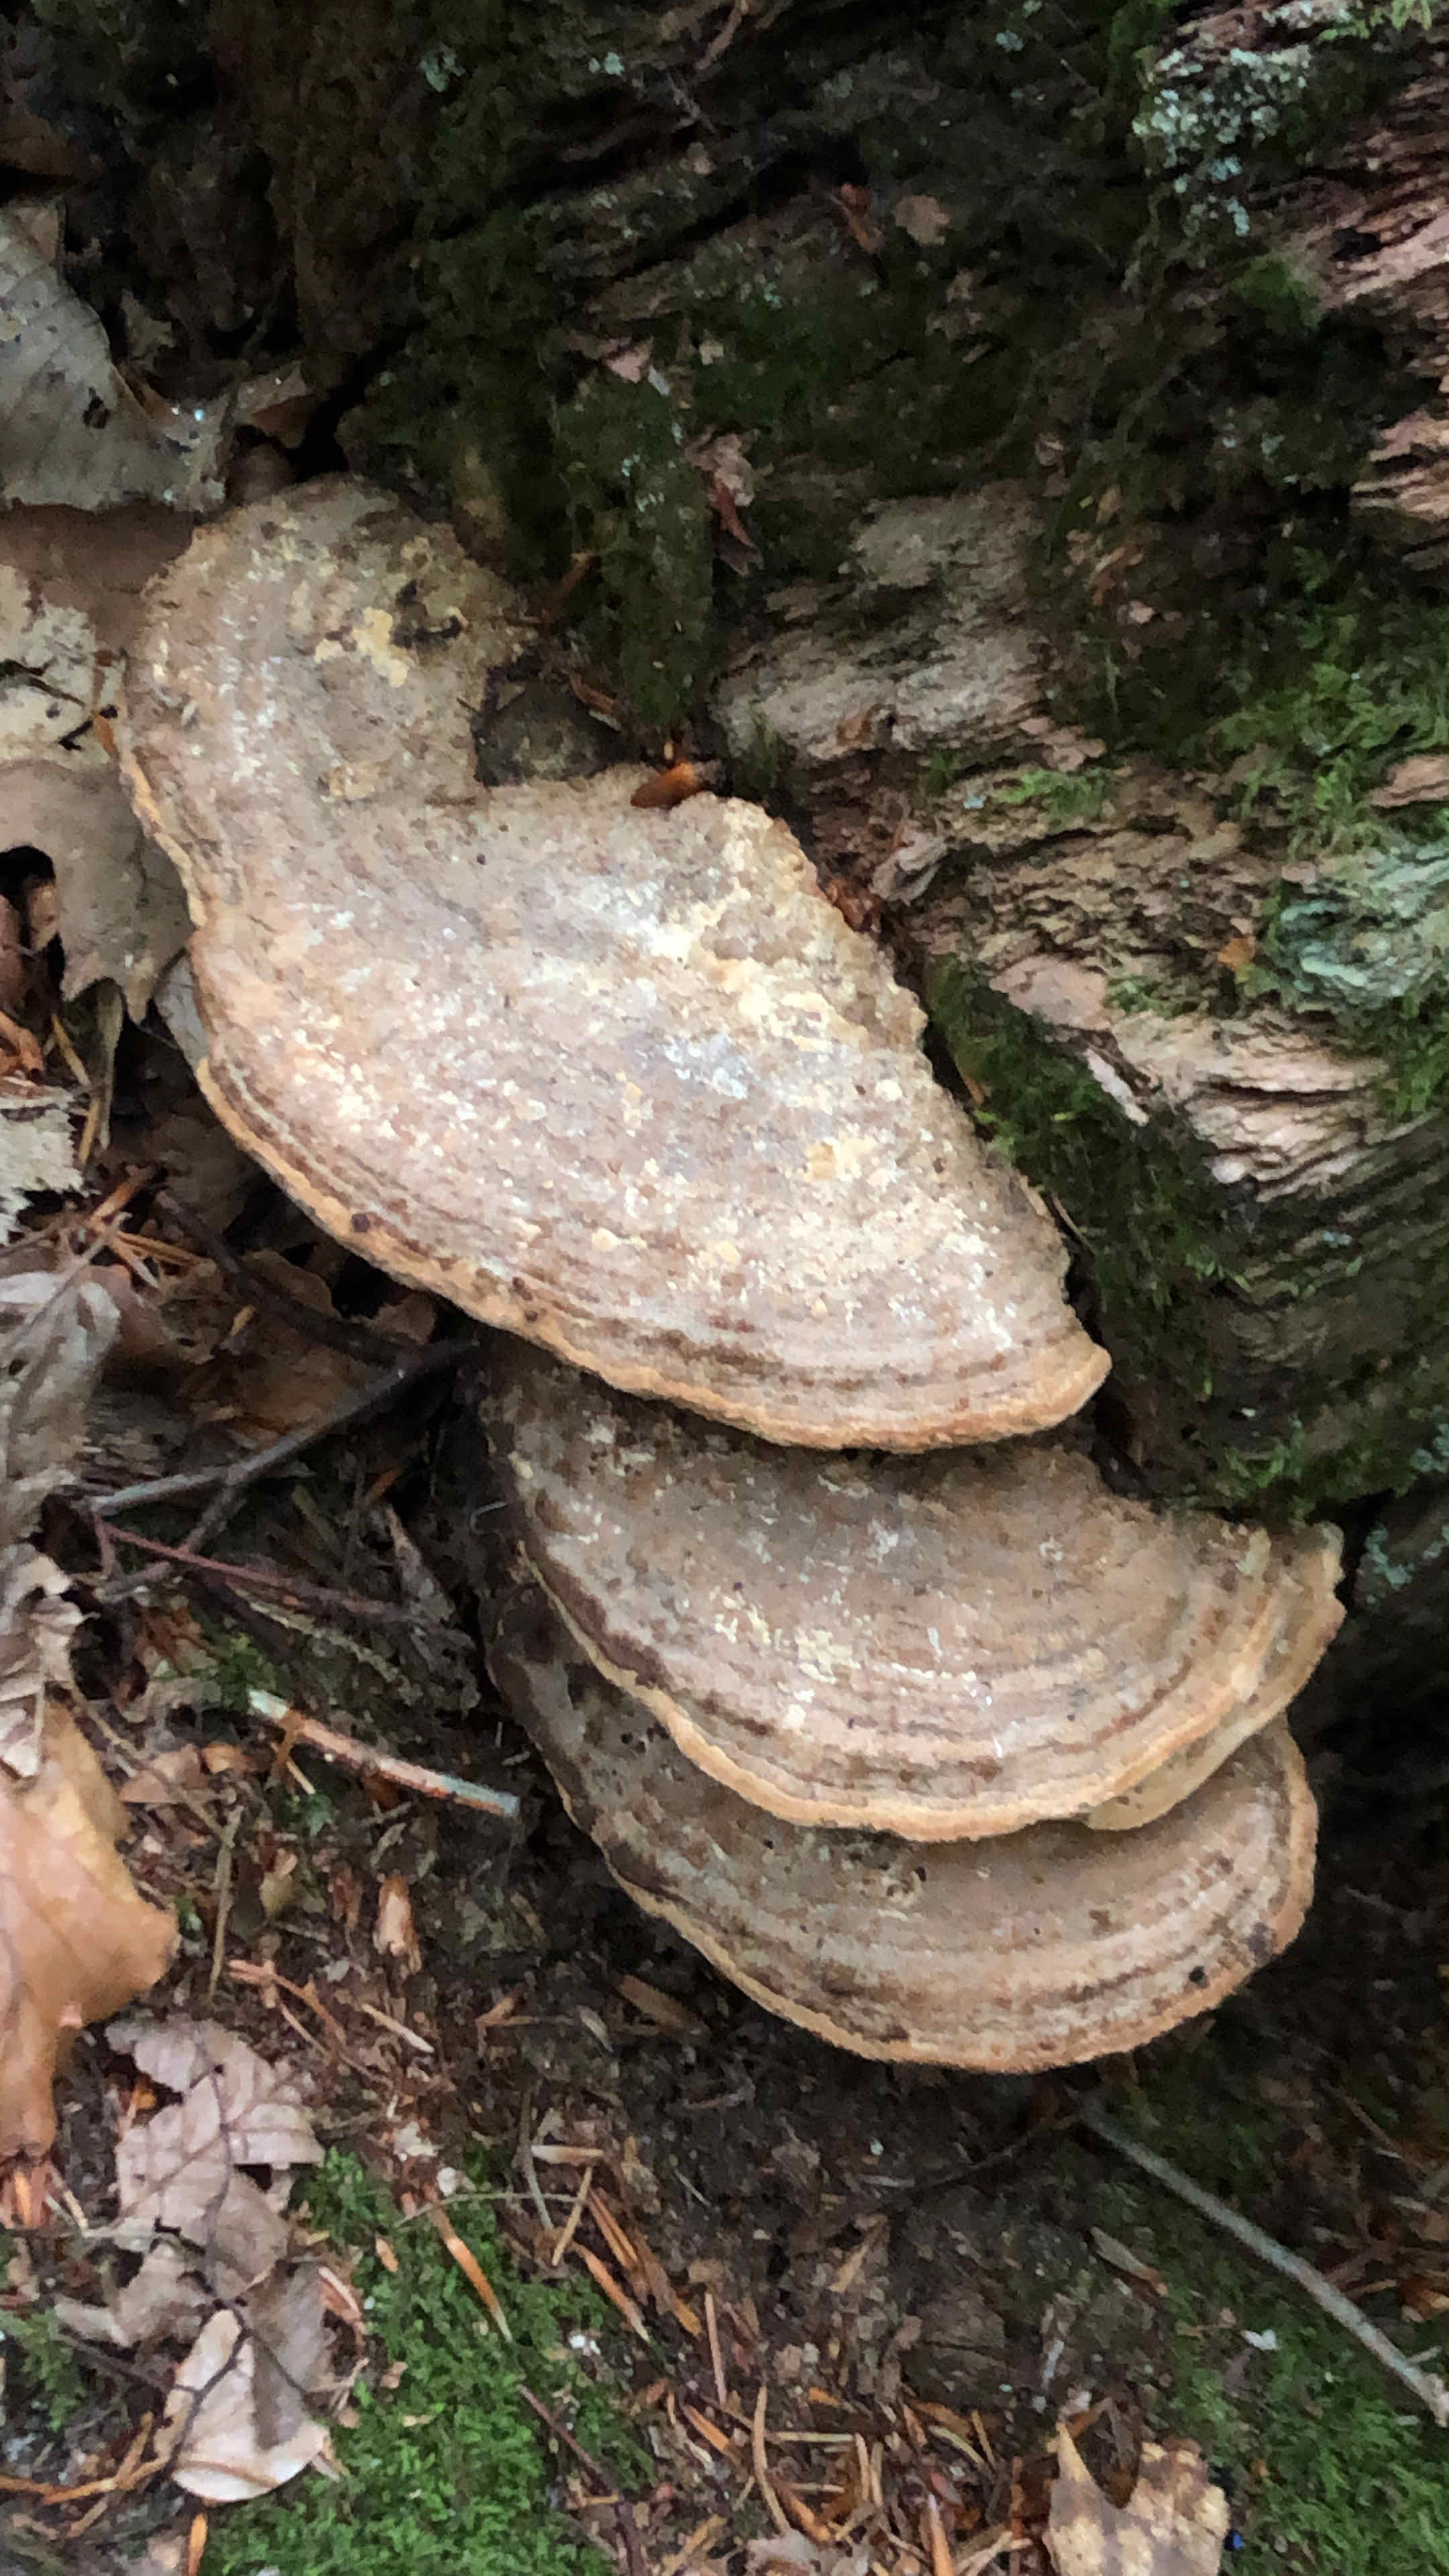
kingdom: Fungi
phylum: Basidiomycota
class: Agaricomycetes
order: Polyporales
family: Fomitopsidaceae
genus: Daedalea
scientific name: Daedalea quercina
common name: ege-labyrintsvamp
